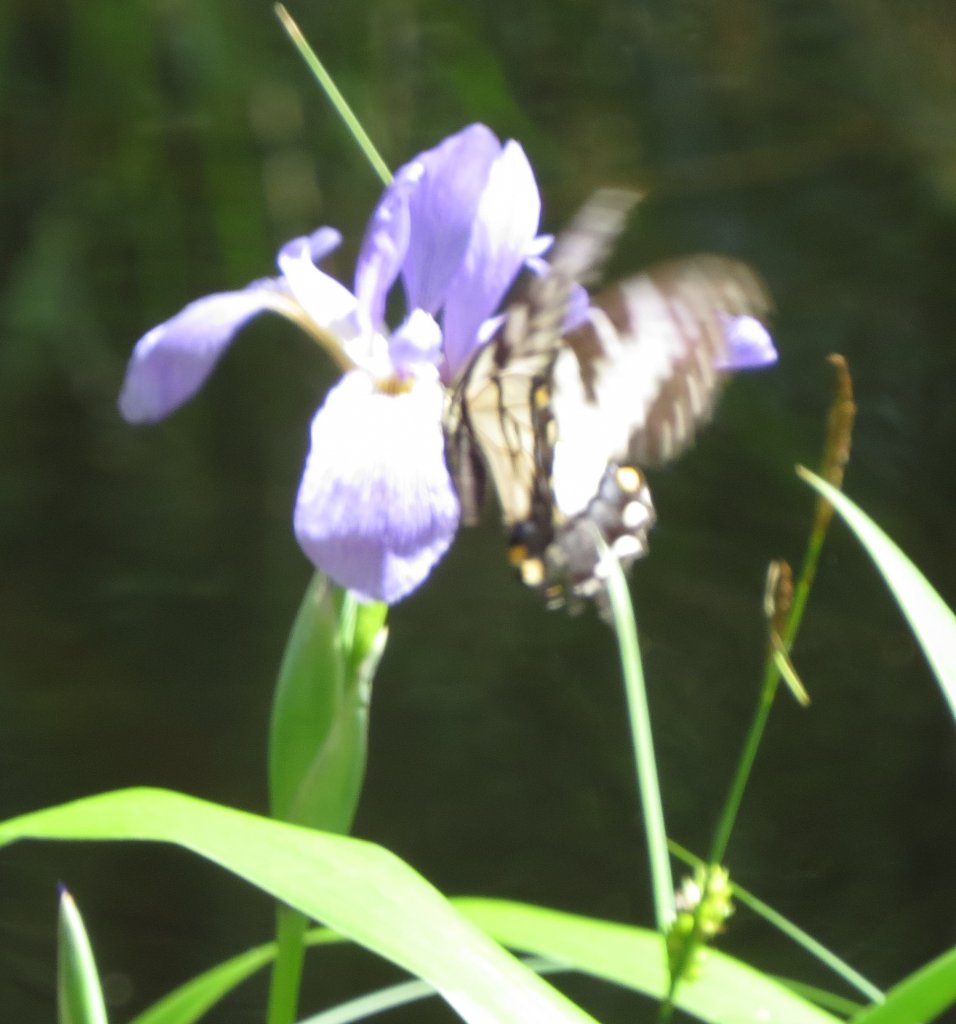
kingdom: Animalia
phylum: Arthropoda
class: Insecta
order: Lepidoptera
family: Papilionidae
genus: Pterourus
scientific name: Pterourus glaucus
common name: Eastern Tiger Swallowtail
